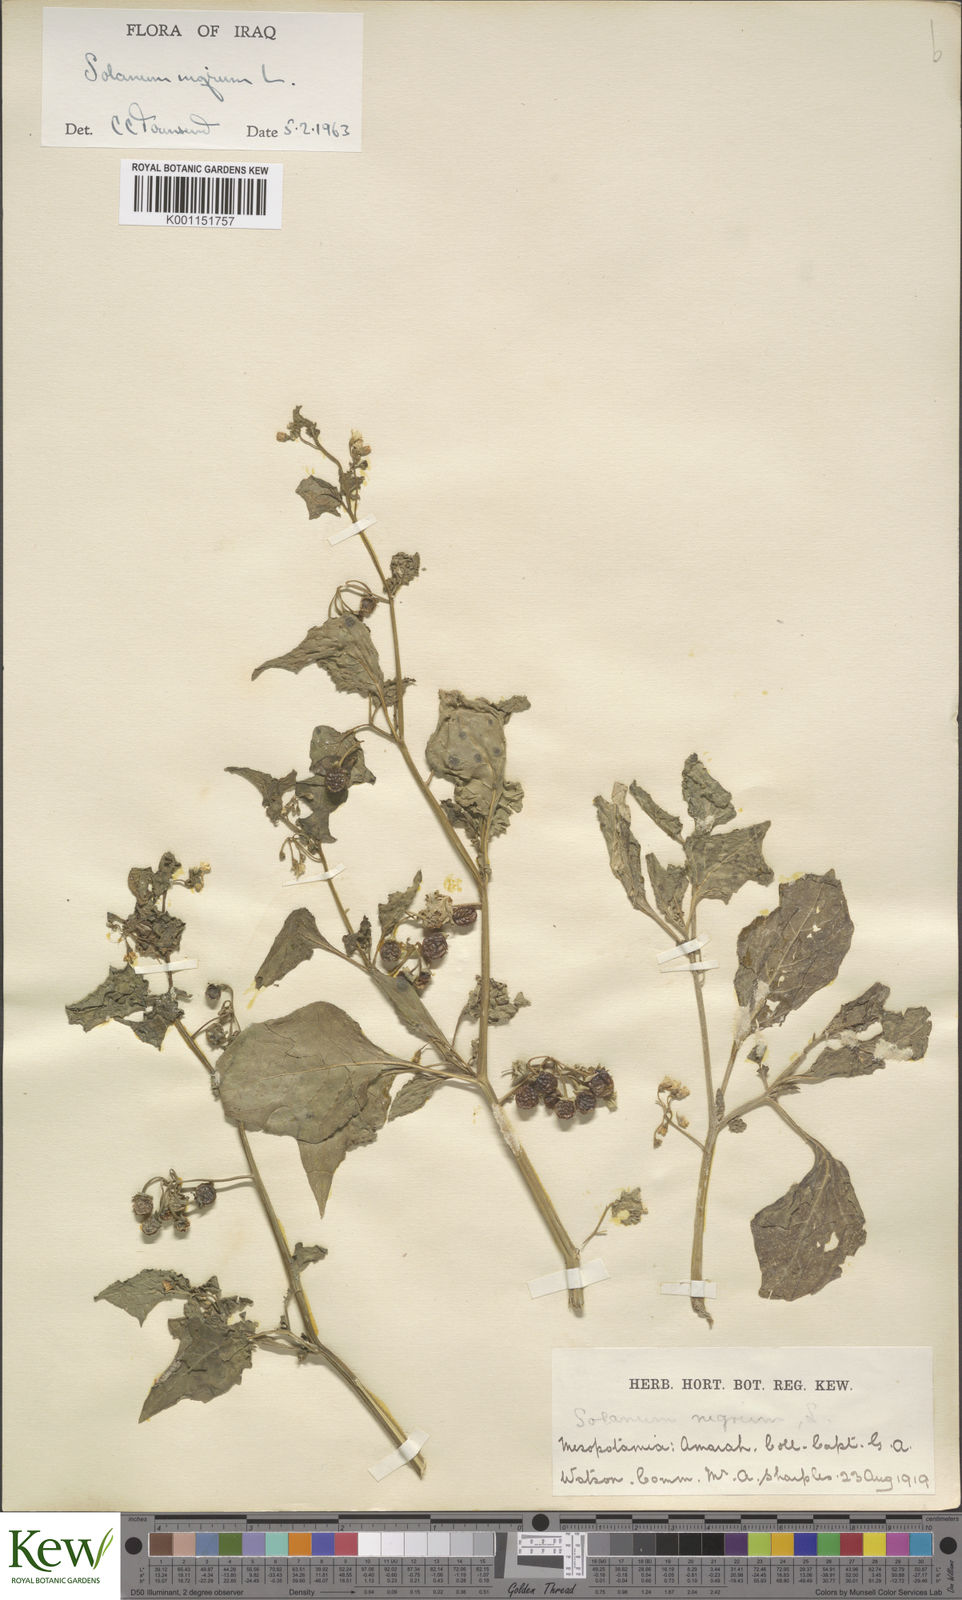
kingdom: Plantae
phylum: Tracheophyta
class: Magnoliopsida
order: Solanales
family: Solanaceae
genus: Solanum
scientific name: Solanum nigrum
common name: Black nightshade
